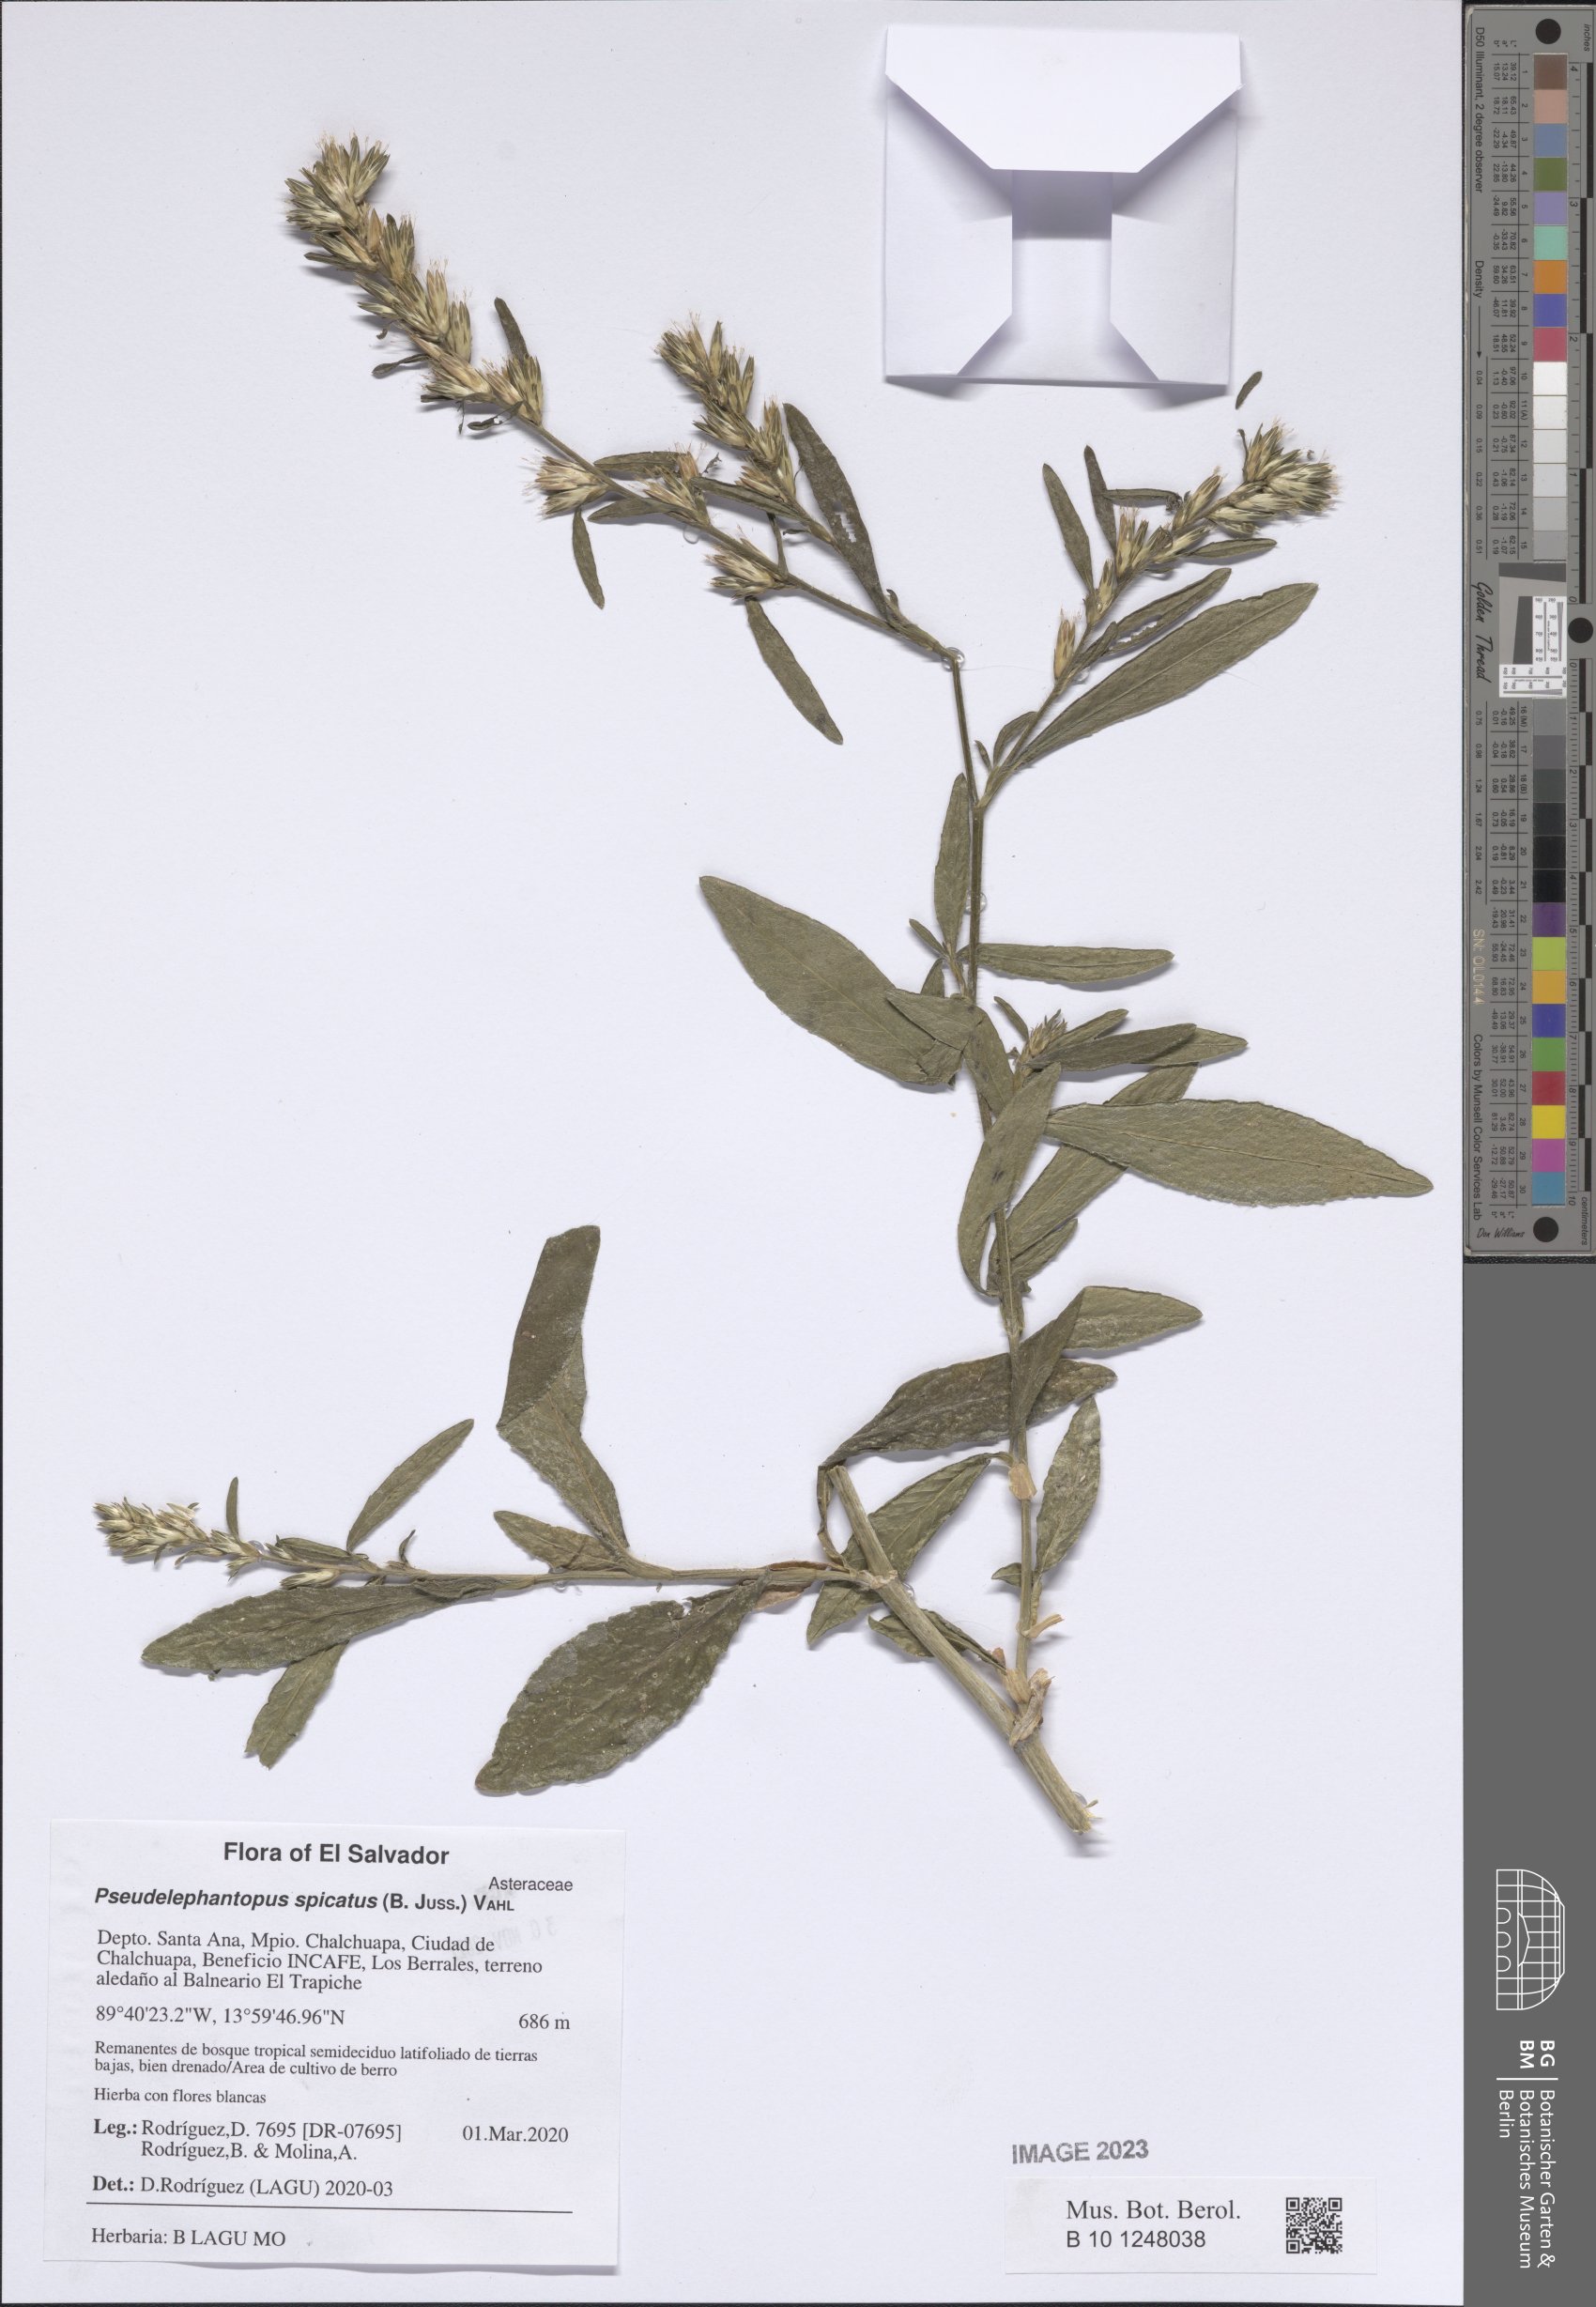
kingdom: Plantae
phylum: Tracheophyta
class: Magnoliopsida
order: Asterales
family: Asteraceae
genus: Pseudelephantopus
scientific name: Pseudelephantopus spicatus
